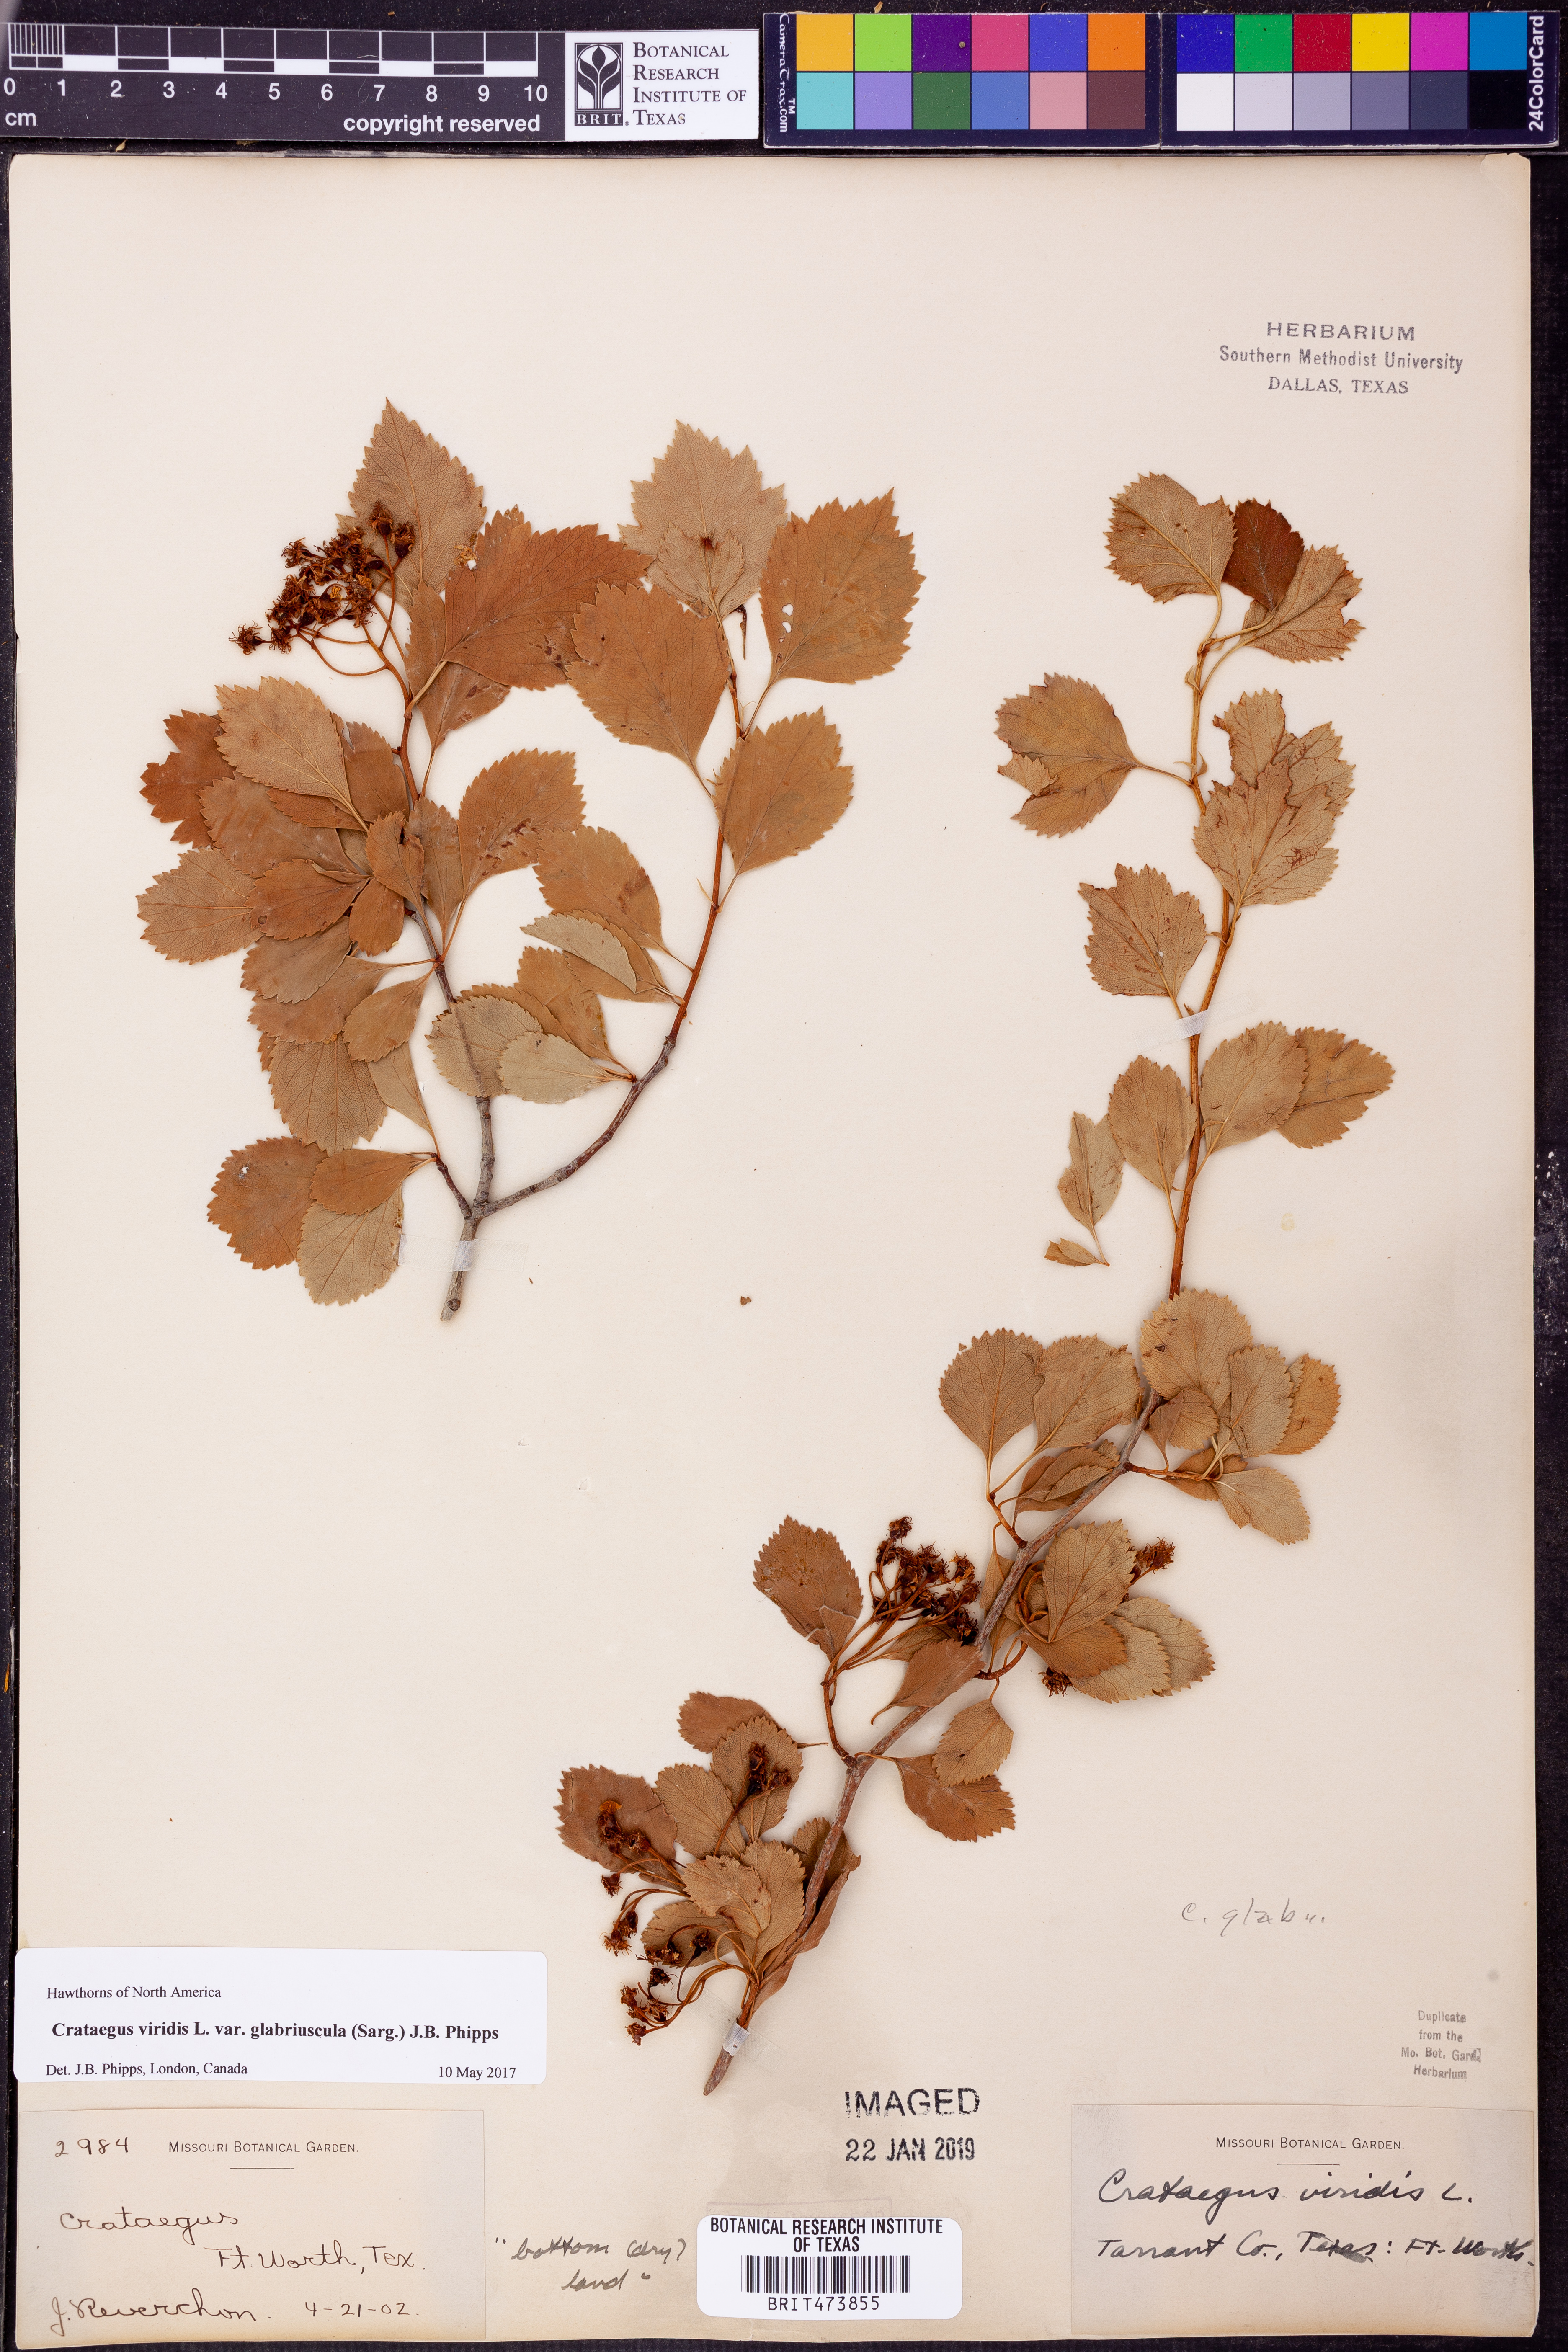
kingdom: Plantae
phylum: Tracheophyta
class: Magnoliopsida
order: Rosales
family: Rosaceae
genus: Crataegus
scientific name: Crataegus viridis
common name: Southernthorn
